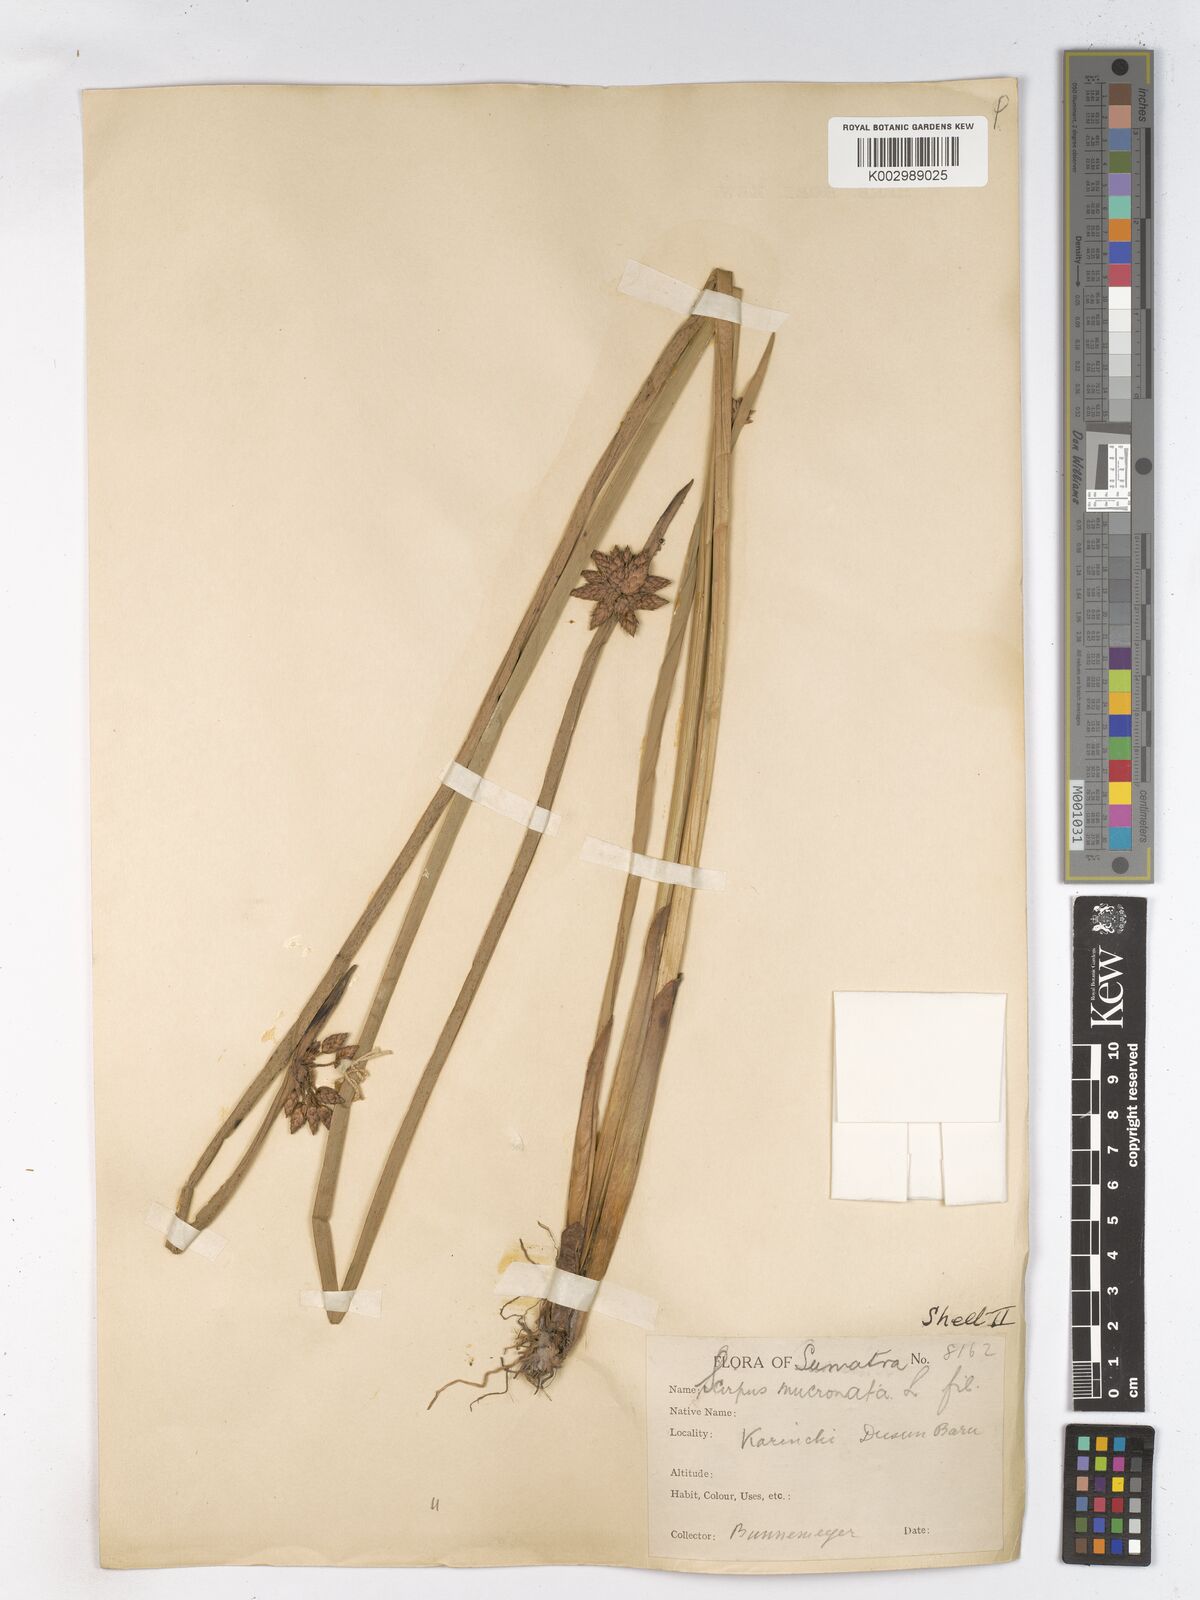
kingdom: Plantae
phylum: Tracheophyta
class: Liliopsida
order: Poales
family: Cyperaceae
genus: Schoenoplectiella
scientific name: Schoenoplectiella mucronata
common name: Bog bulrush
